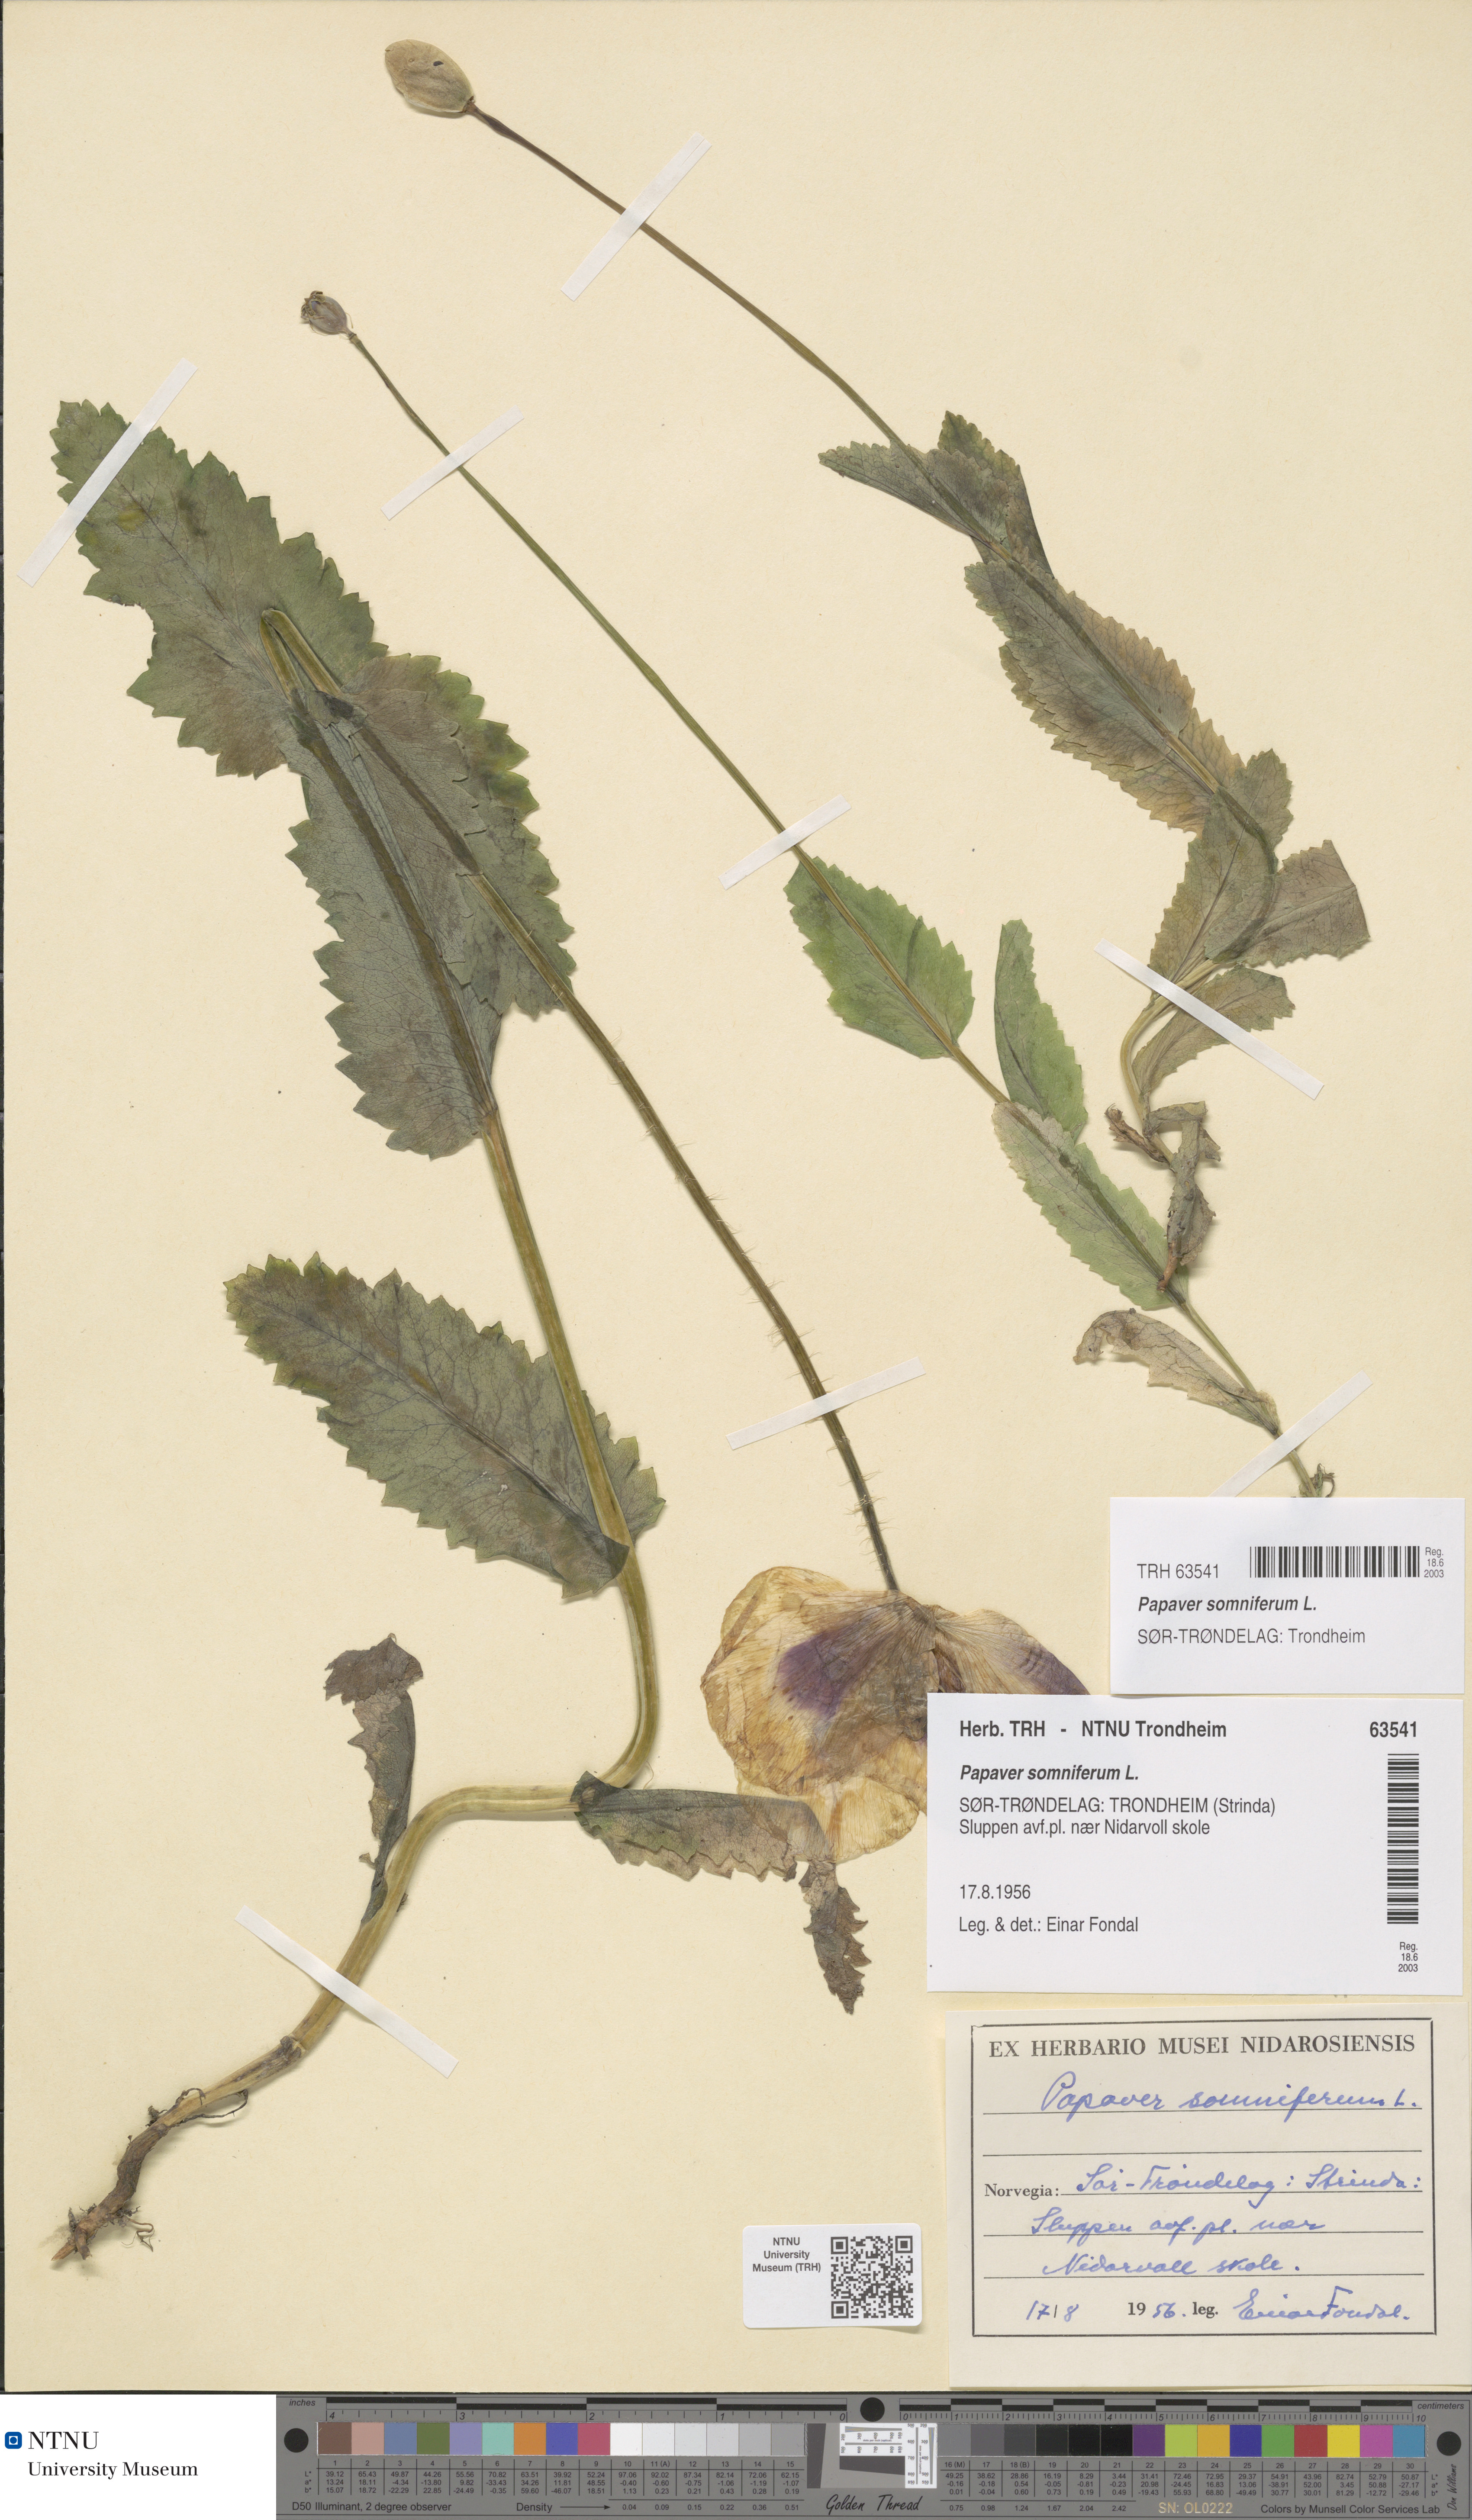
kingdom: Plantae
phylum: Tracheophyta
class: Magnoliopsida
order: Ranunculales
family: Papaveraceae
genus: Papaver
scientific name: Papaver somniferum
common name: Opium poppy
